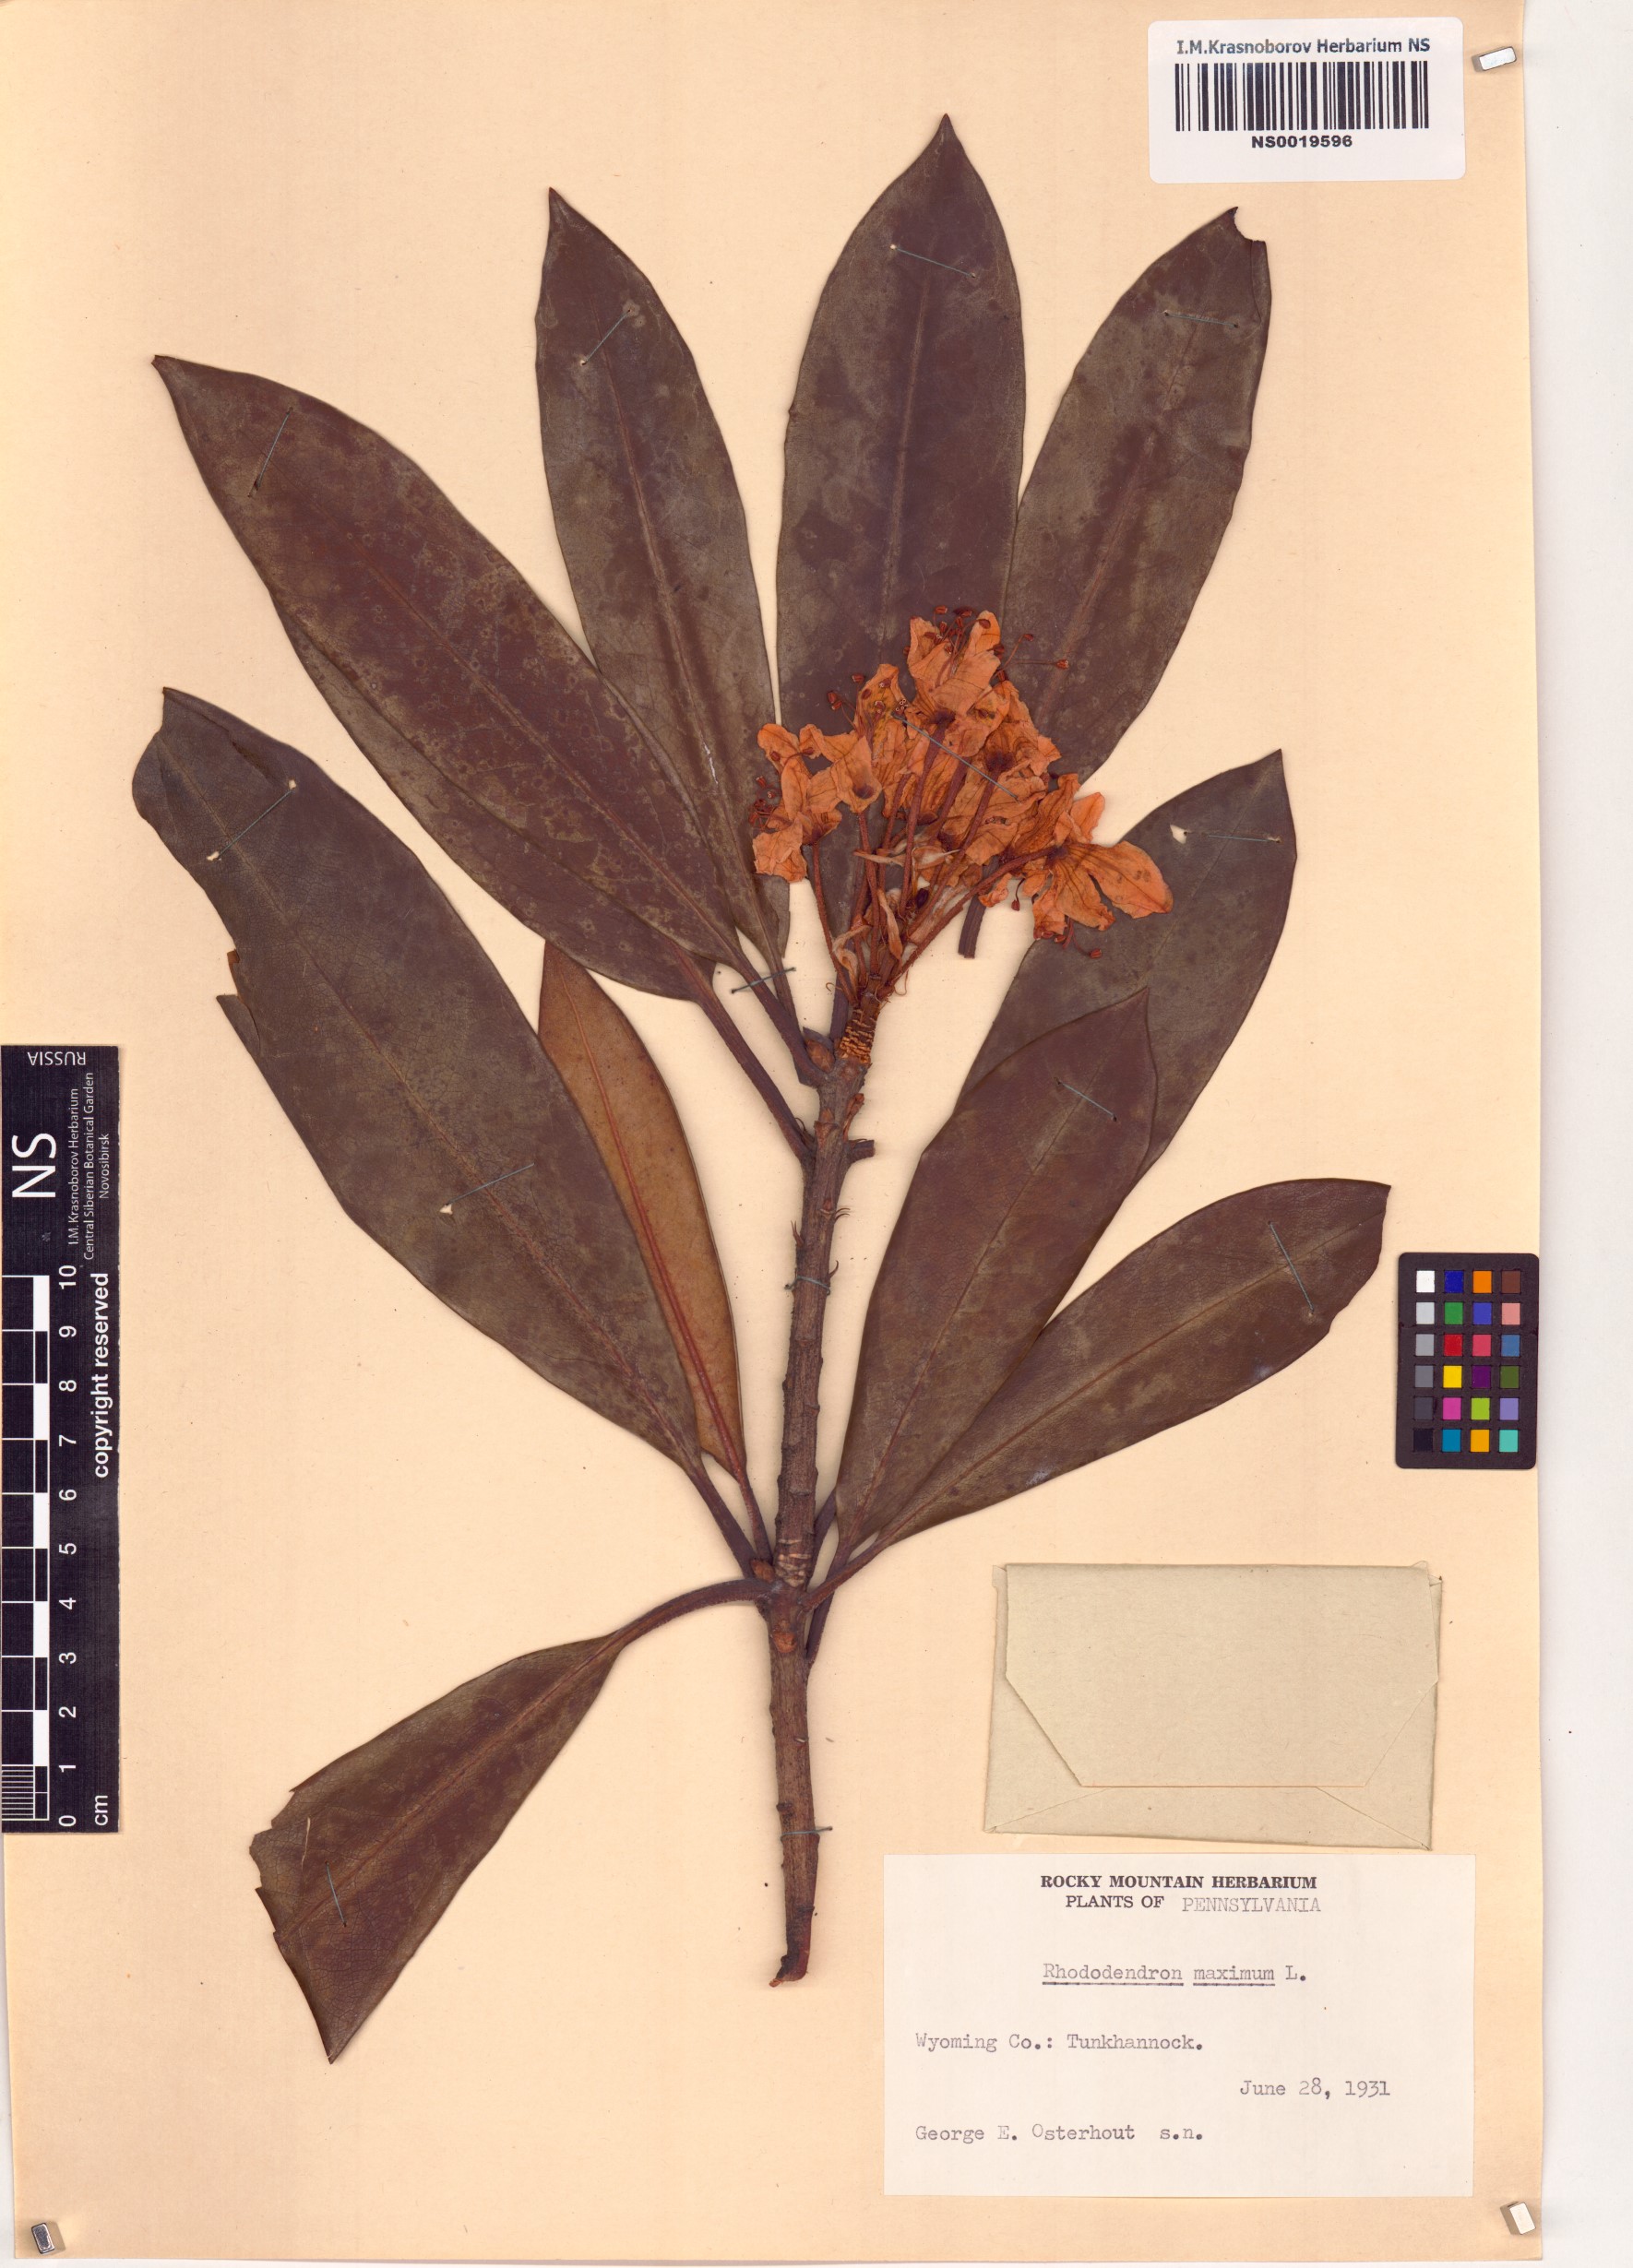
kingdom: Plantae
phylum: Tracheophyta
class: Magnoliopsida
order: Ericales
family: Ericaceae
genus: Rhododendron
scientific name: Rhododendron maximum
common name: Great rhododendron
